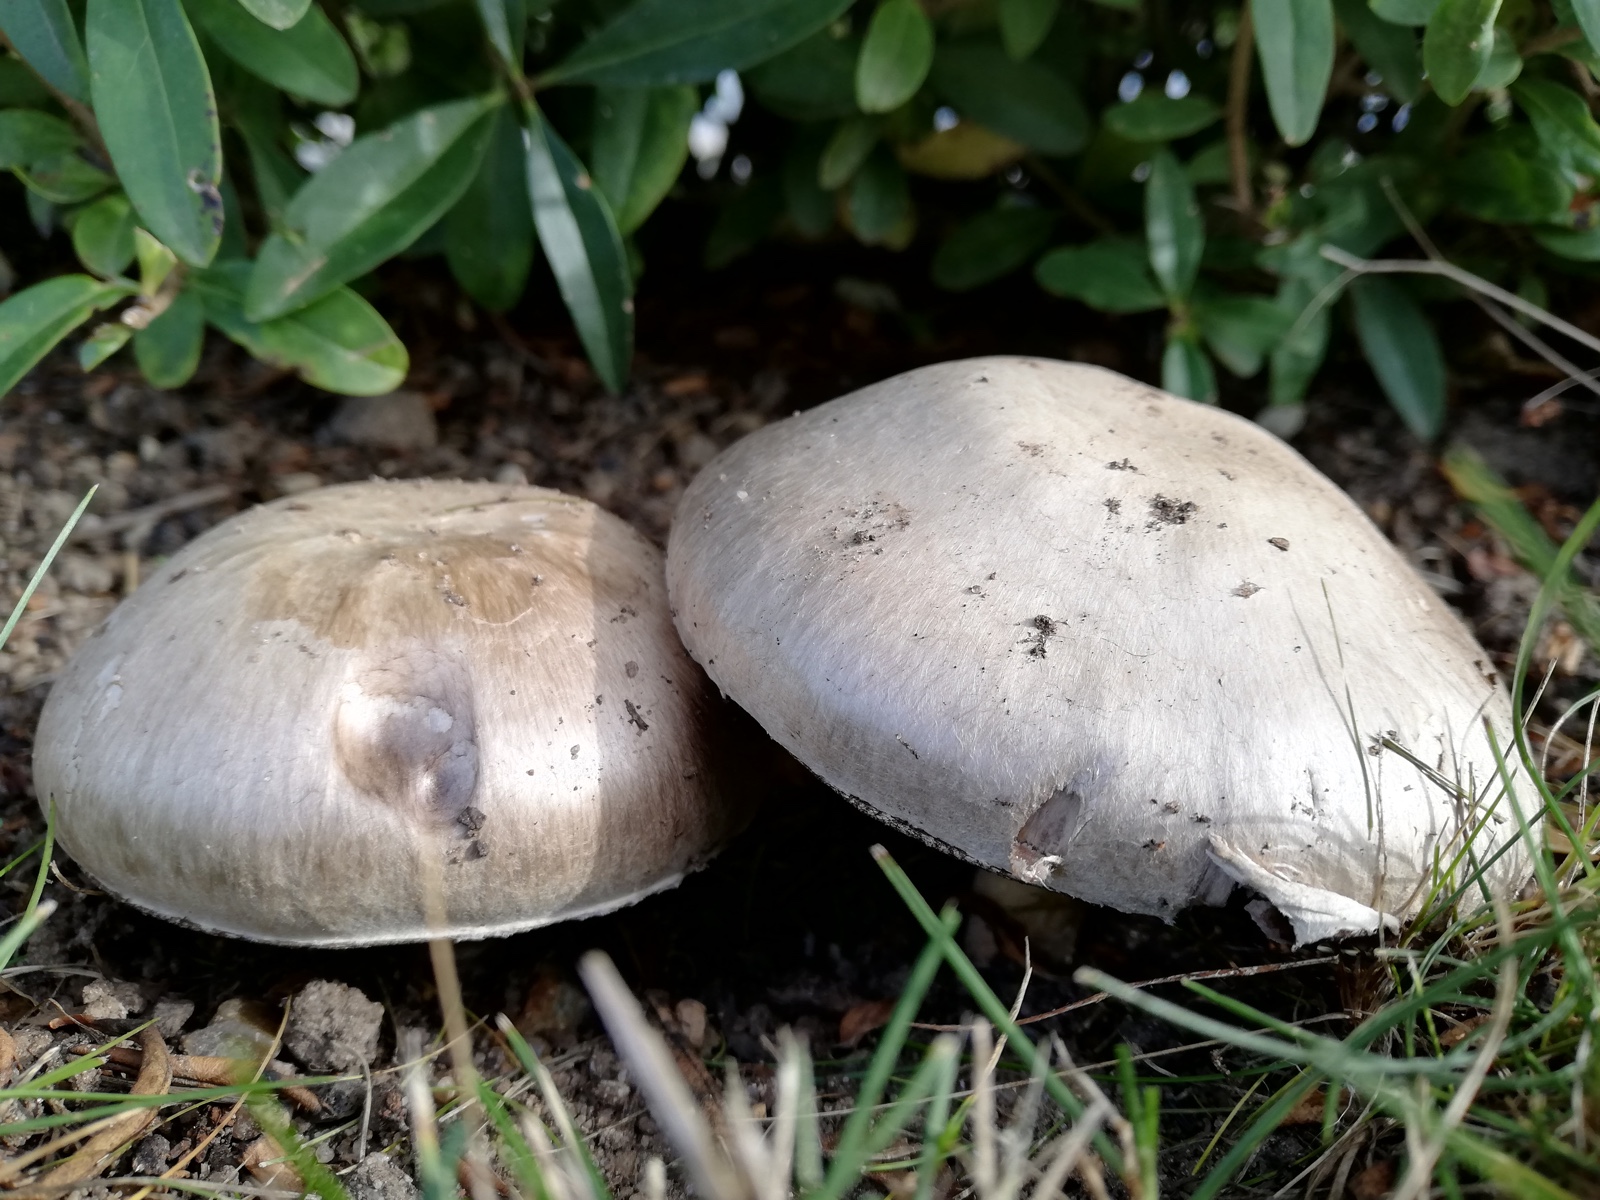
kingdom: Fungi
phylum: Basidiomycota
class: Agaricomycetes
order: Agaricales
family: Agaricaceae
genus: Agaricus
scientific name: Agaricus
